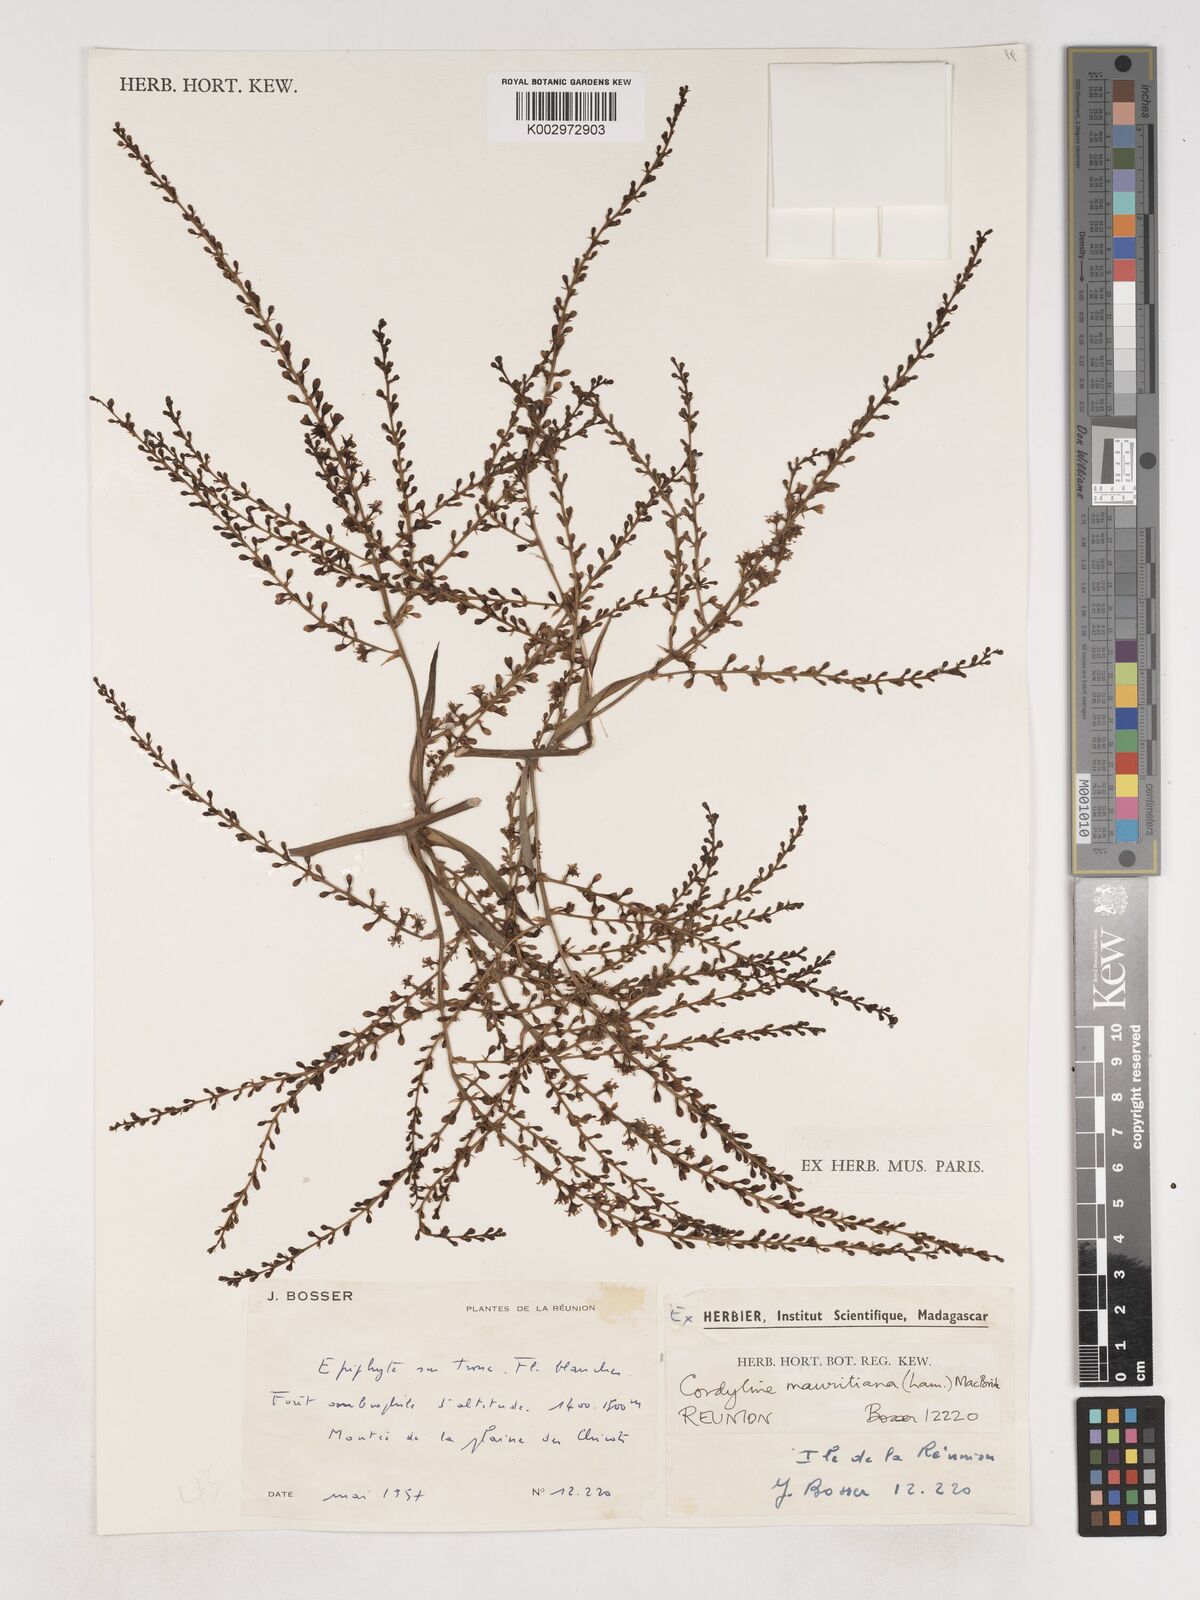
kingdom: Plantae
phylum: Tracheophyta
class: Liliopsida
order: Asparagales
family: Asparagaceae
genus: Cordyline
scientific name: Cordyline mauritiana
